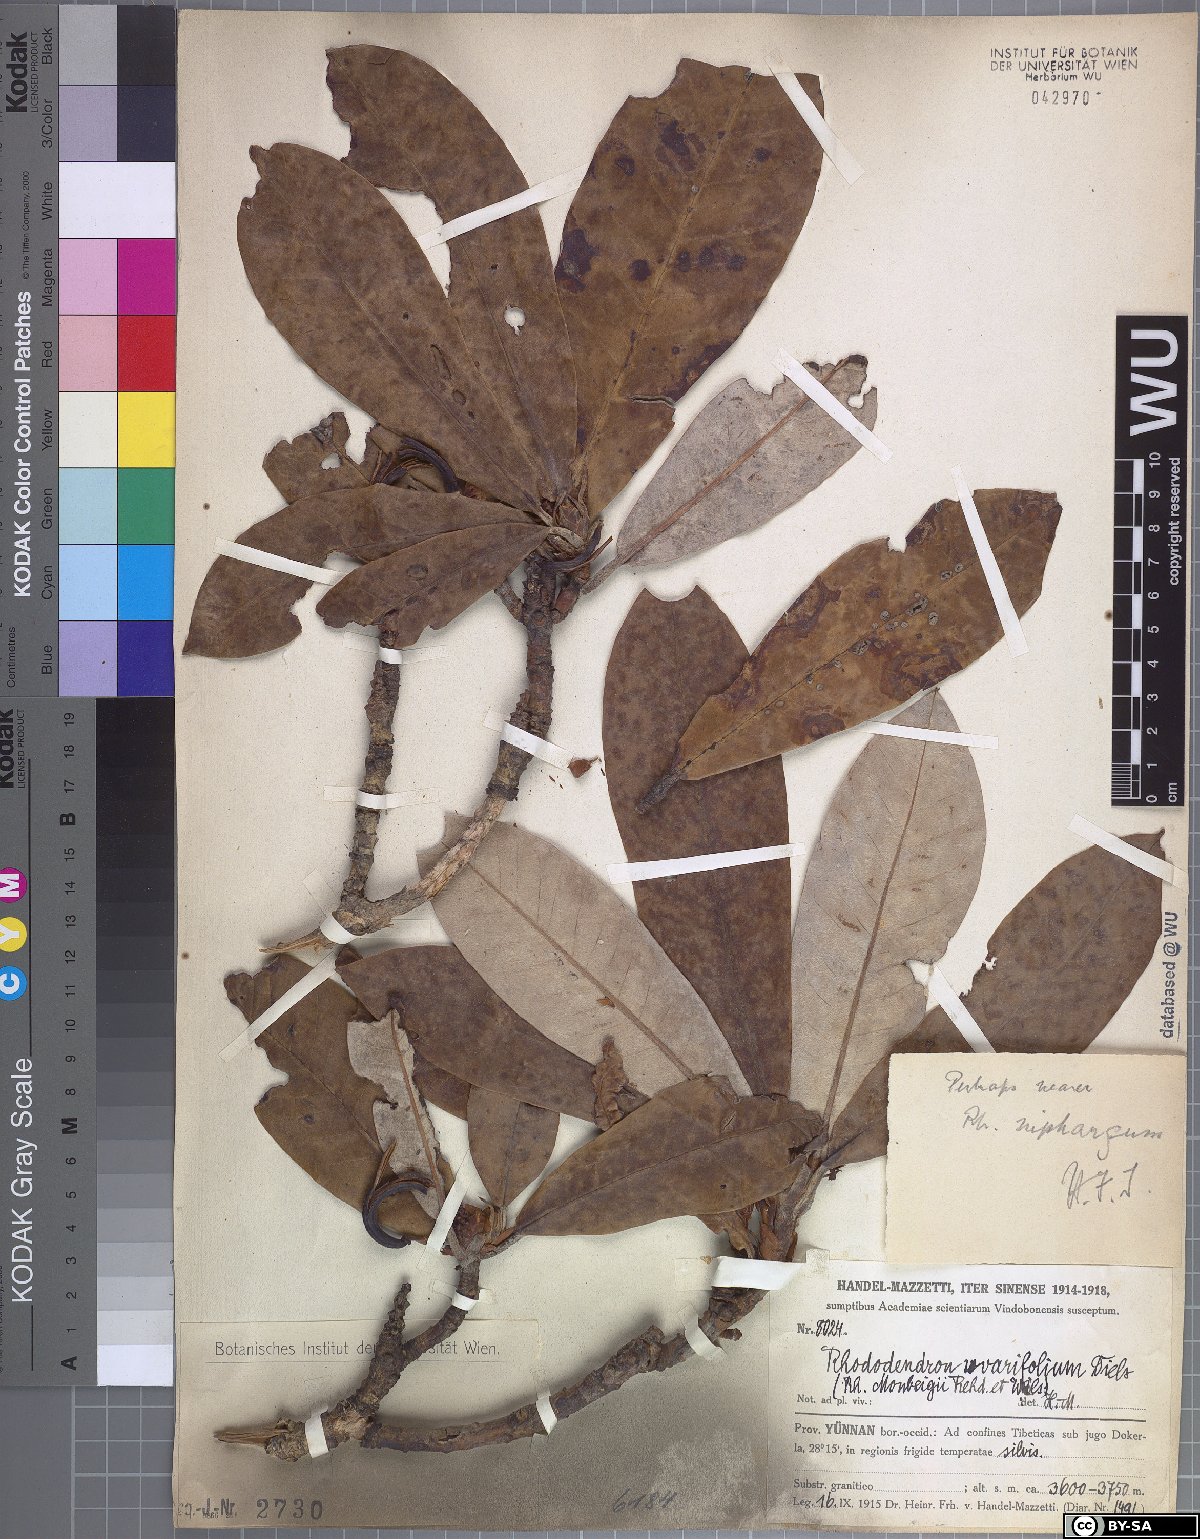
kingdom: Plantae
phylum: Tracheophyta
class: Magnoliopsida
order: Ericales
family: Ericaceae
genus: Rhododendron
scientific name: Rhododendron uvariifolium
